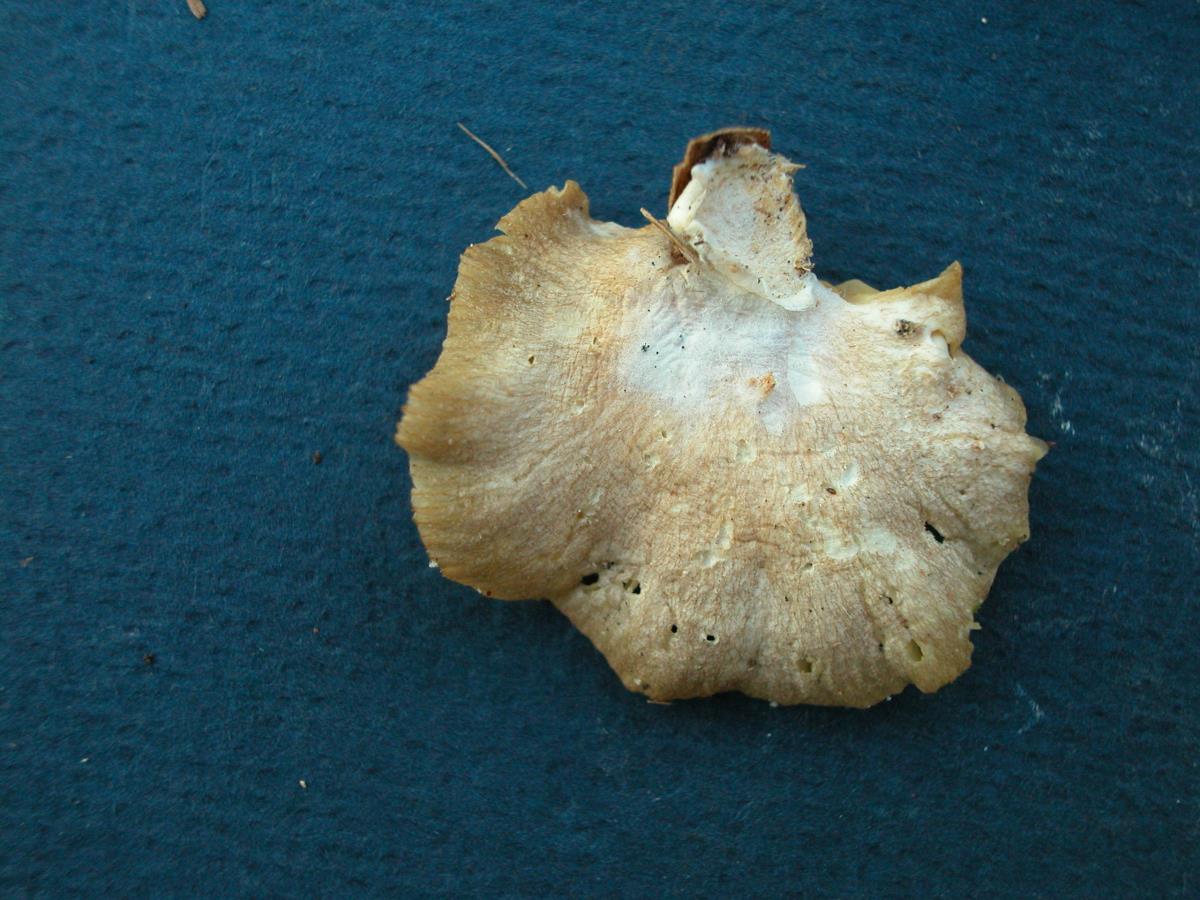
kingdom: Fungi
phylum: Basidiomycota
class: Agaricomycetes
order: Agaricales
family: Pleurotaceae
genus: Pleurotus
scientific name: Pleurotus djamor
